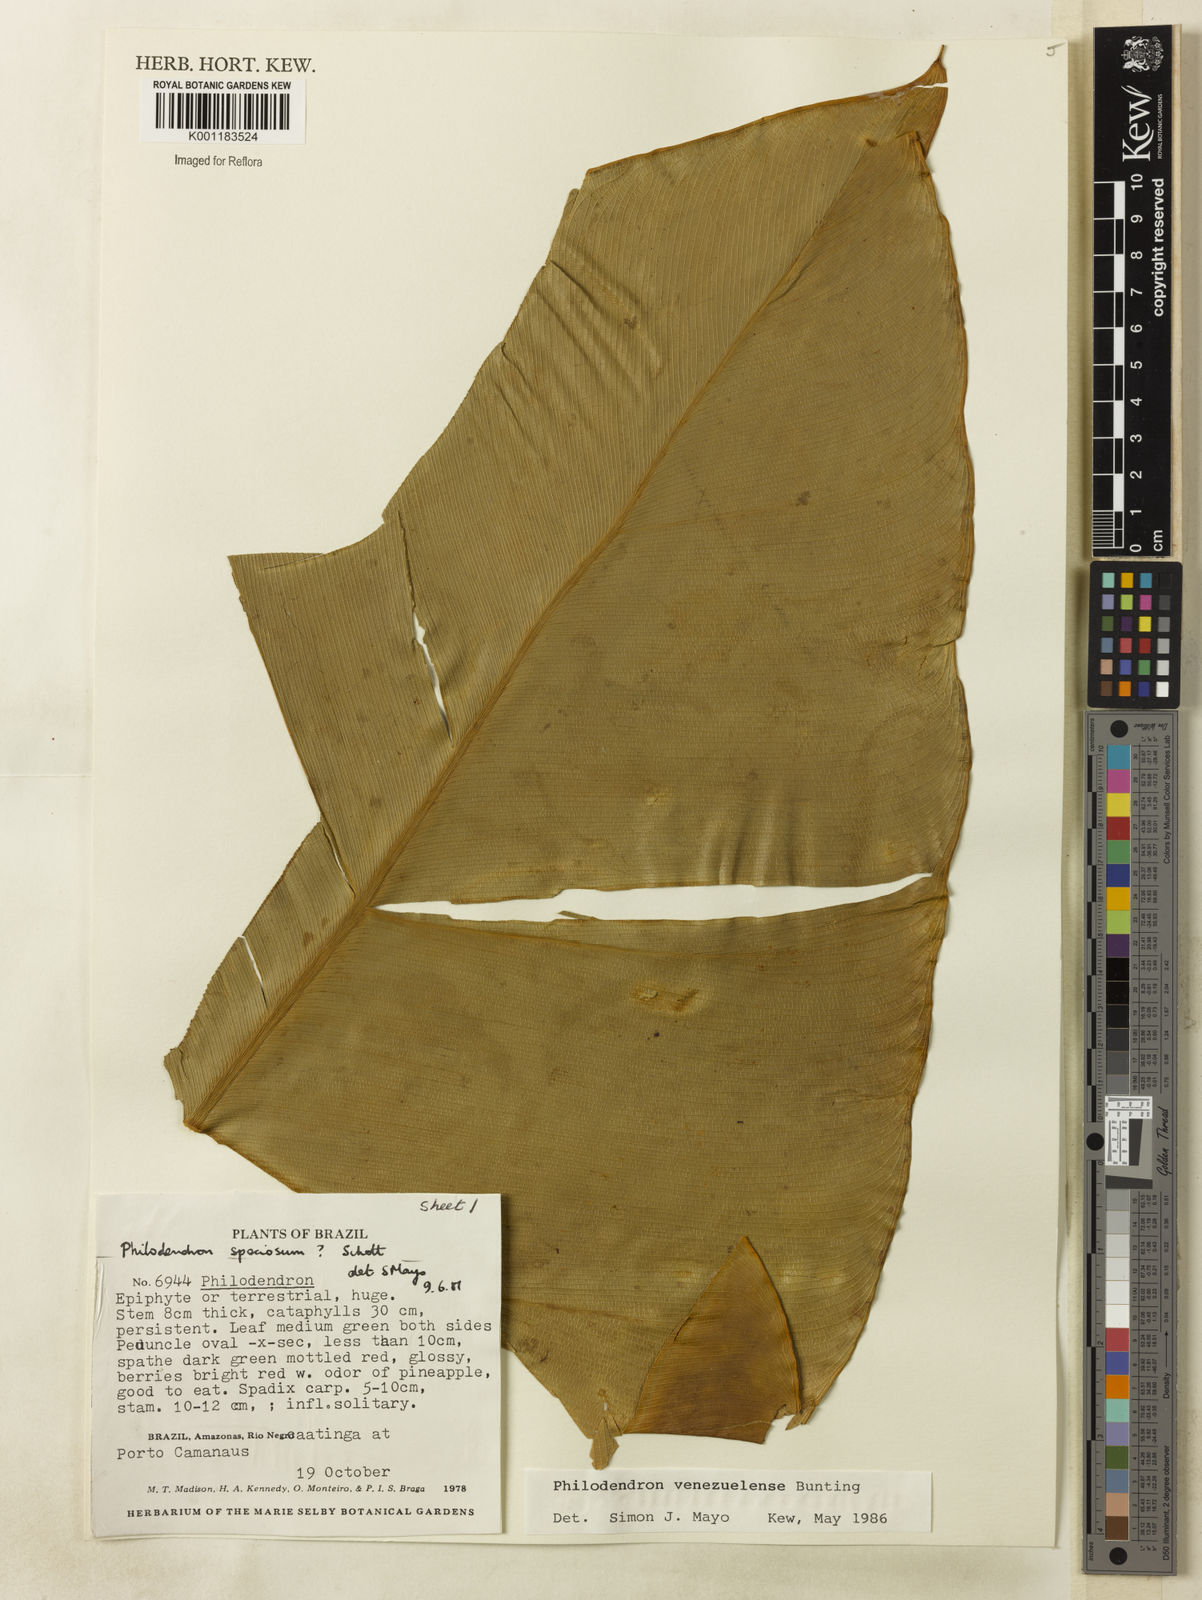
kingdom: Plantae
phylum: Tracheophyta
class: Liliopsida
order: Alismatales
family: Araceae
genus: Thaumatophyllum
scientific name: Thaumatophyllum venezuelense
